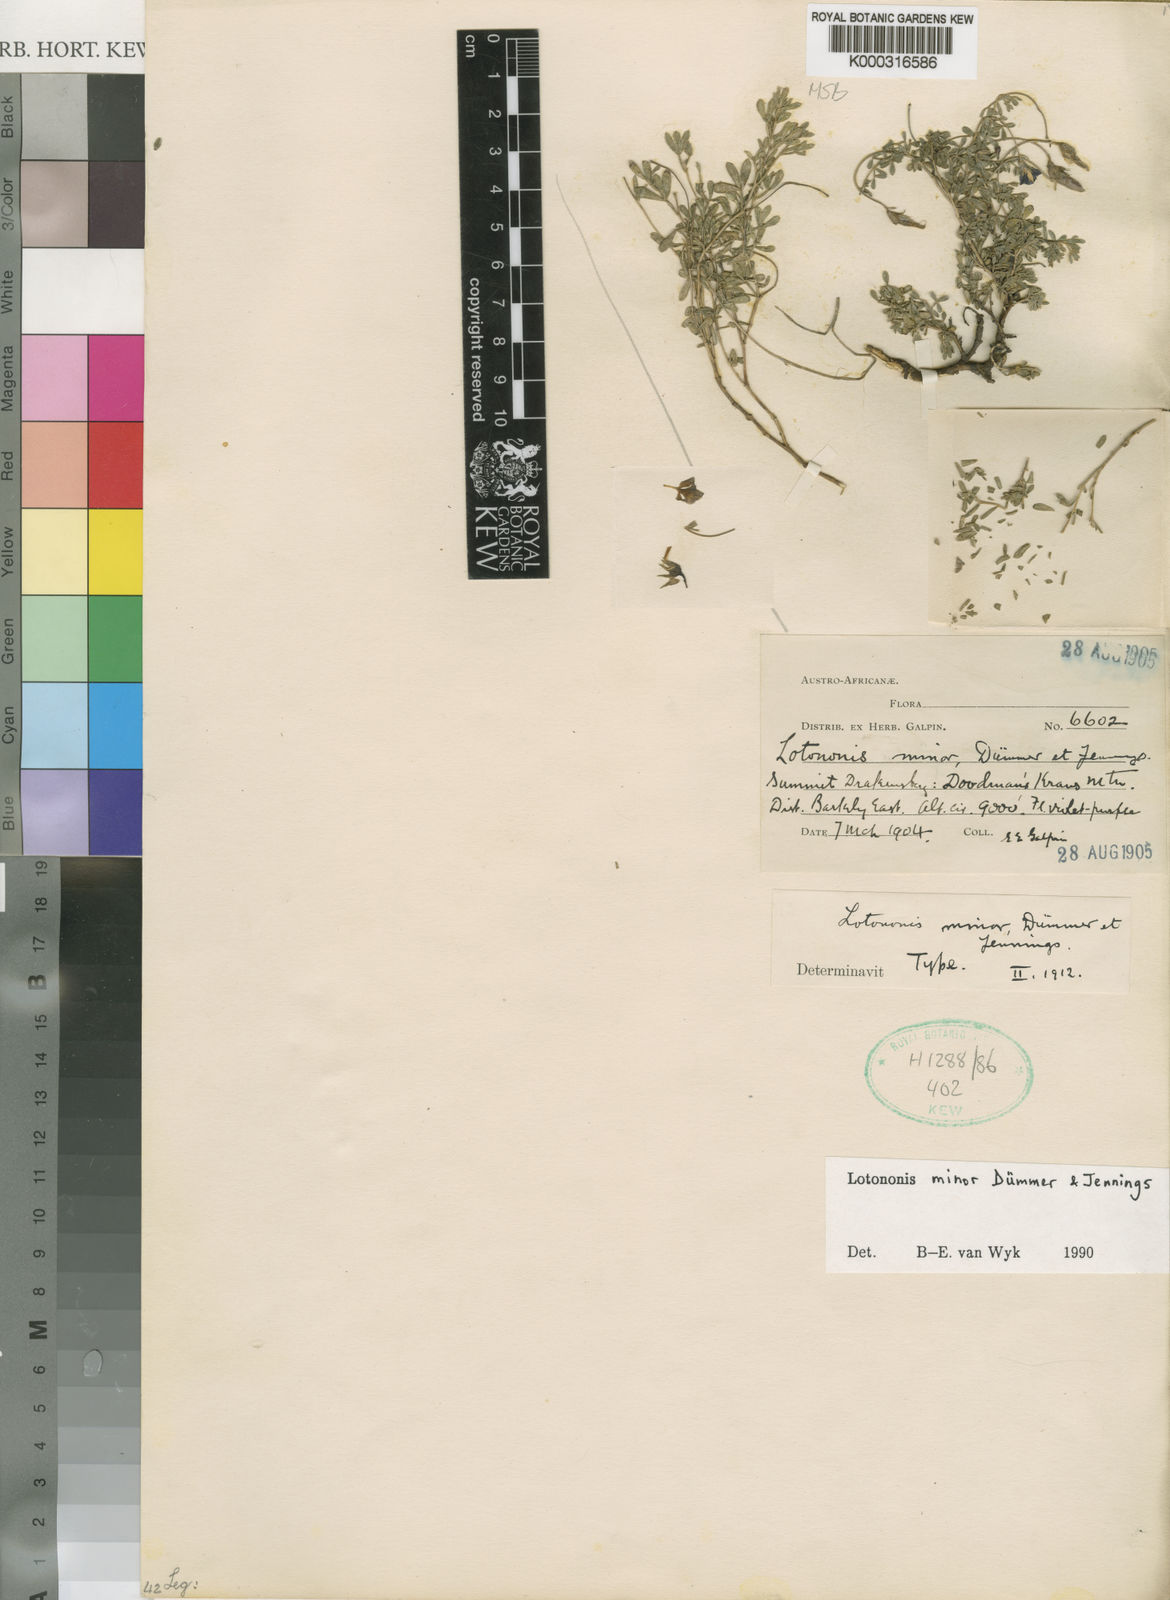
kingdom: Plantae
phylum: Tracheophyta
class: Magnoliopsida
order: Fabales
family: Fabaceae
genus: Lotononis
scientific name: Lotononis minor
